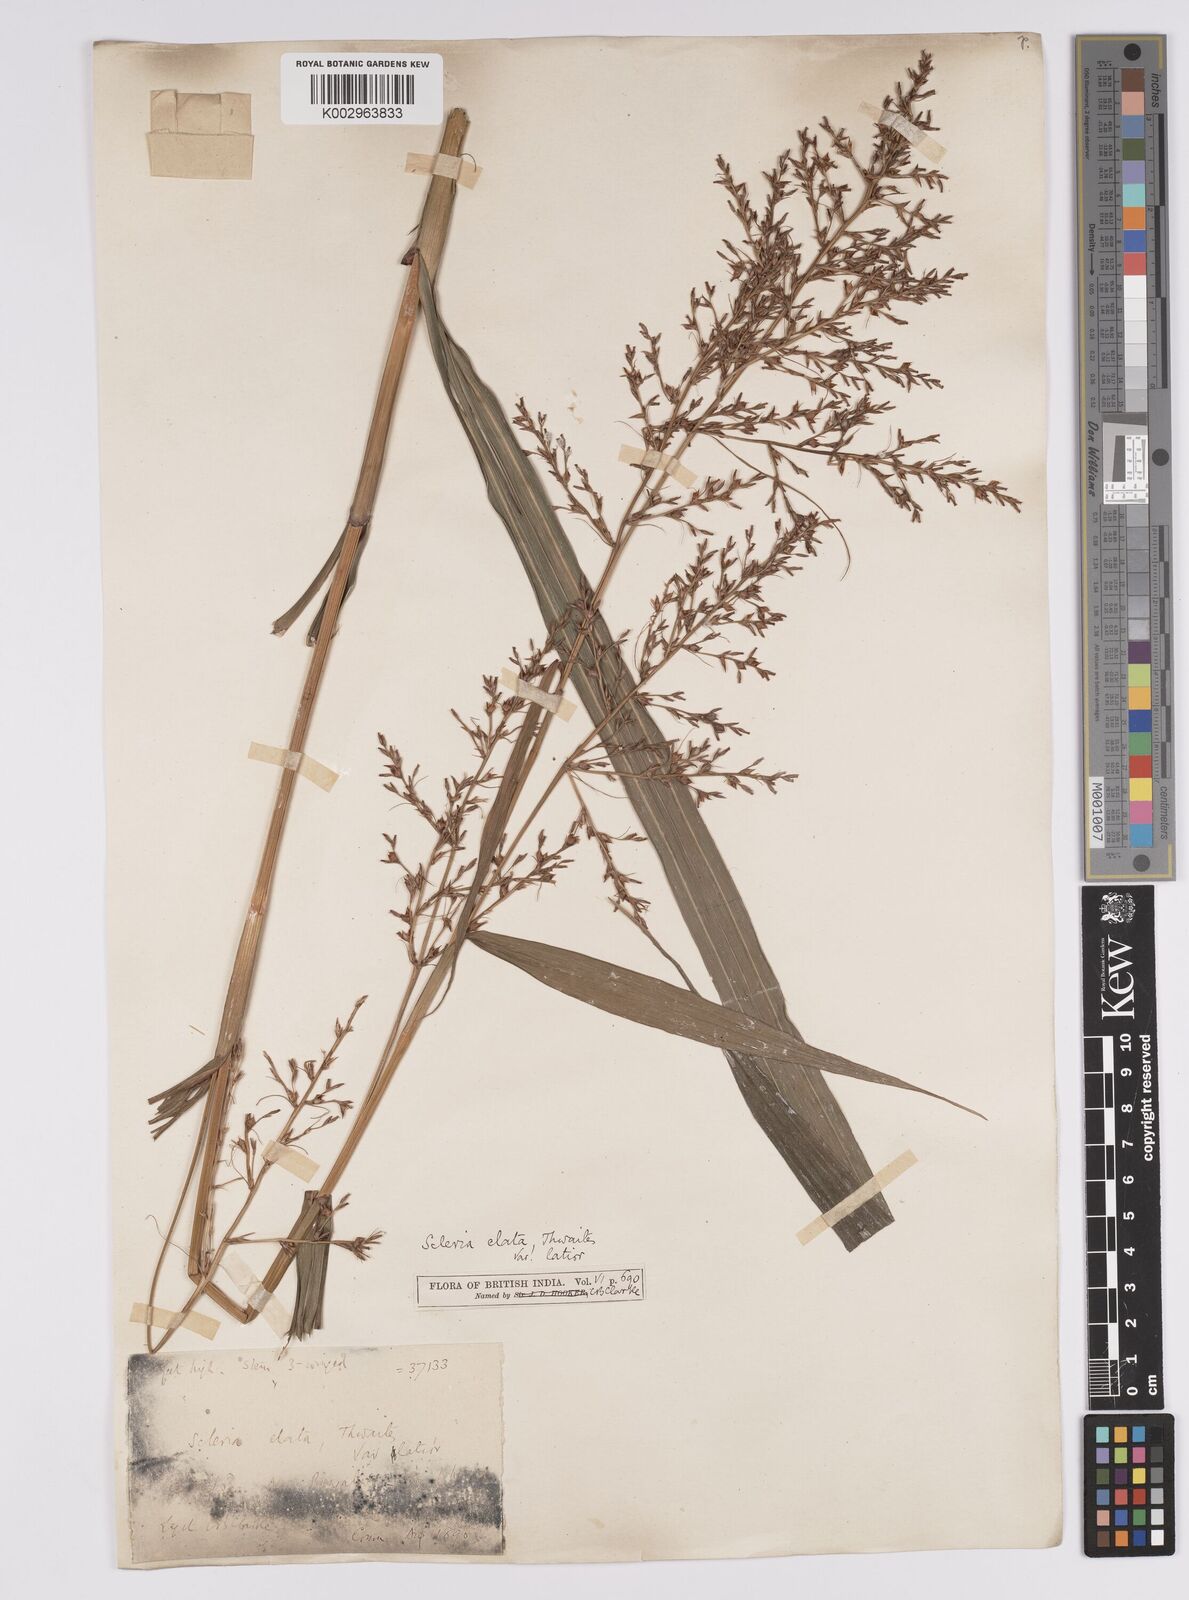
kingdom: Plantae
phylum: Tracheophyta
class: Liliopsida
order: Poales
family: Cyperaceae
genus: Scleria
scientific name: Scleria terrestris
